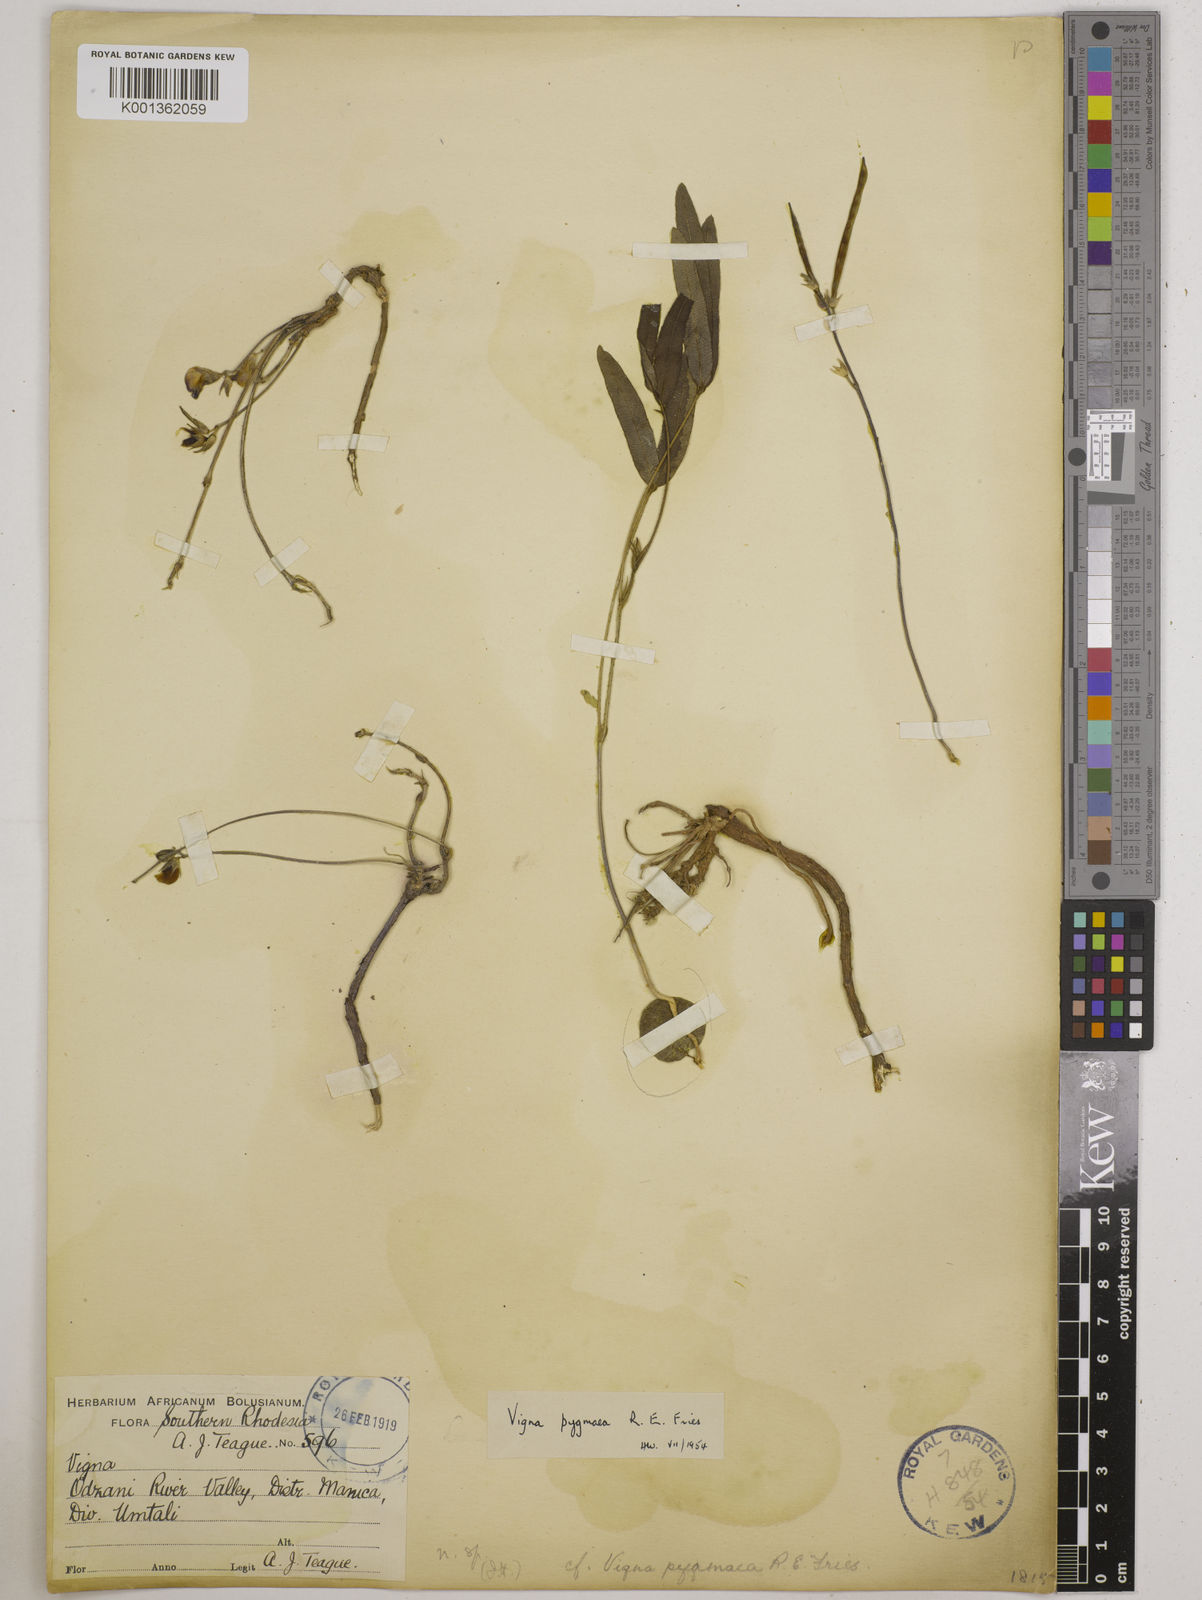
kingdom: Plantae
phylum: Tracheophyta
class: Magnoliopsida
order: Fabales
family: Fabaceae
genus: Vigna
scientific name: Vigna pygmaea
